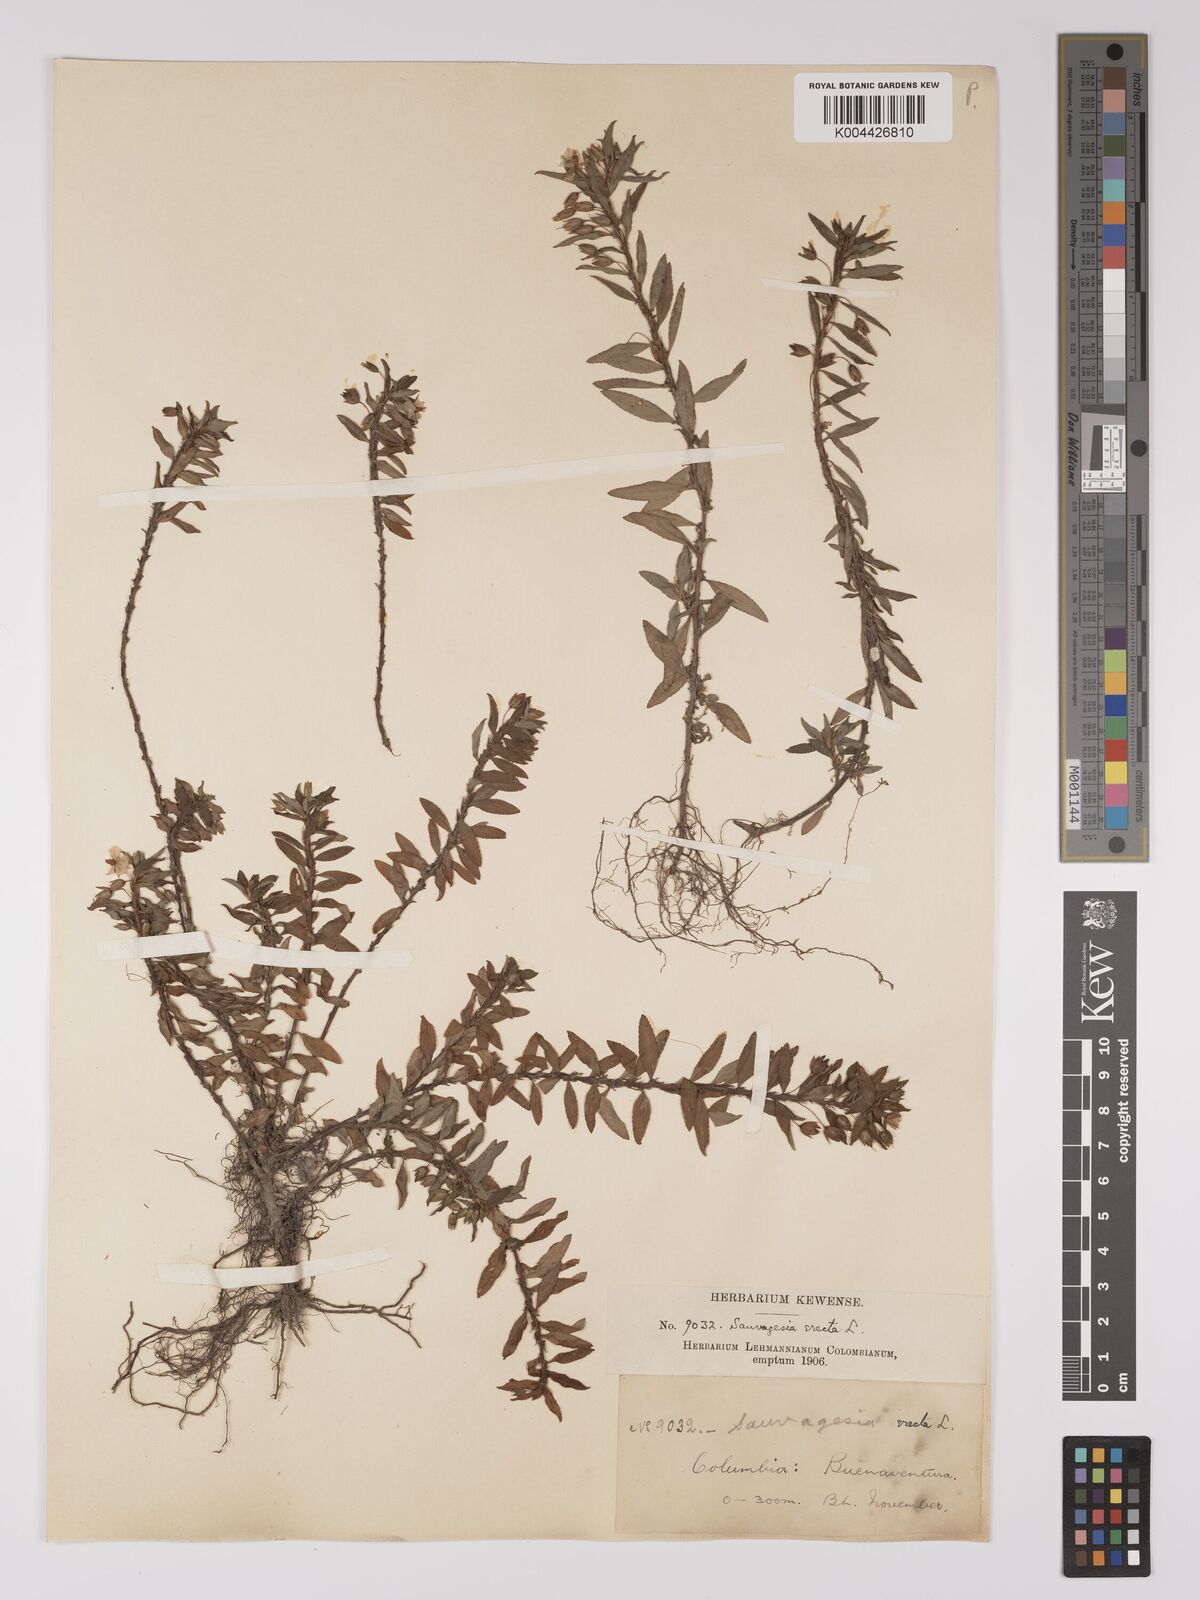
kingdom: Plantae
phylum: Tracheophyta
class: Magnoliopsida
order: Malpighiales
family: Ochnaceae
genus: Sauvagesia
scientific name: Sauvagesia erecta
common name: Creole tea
